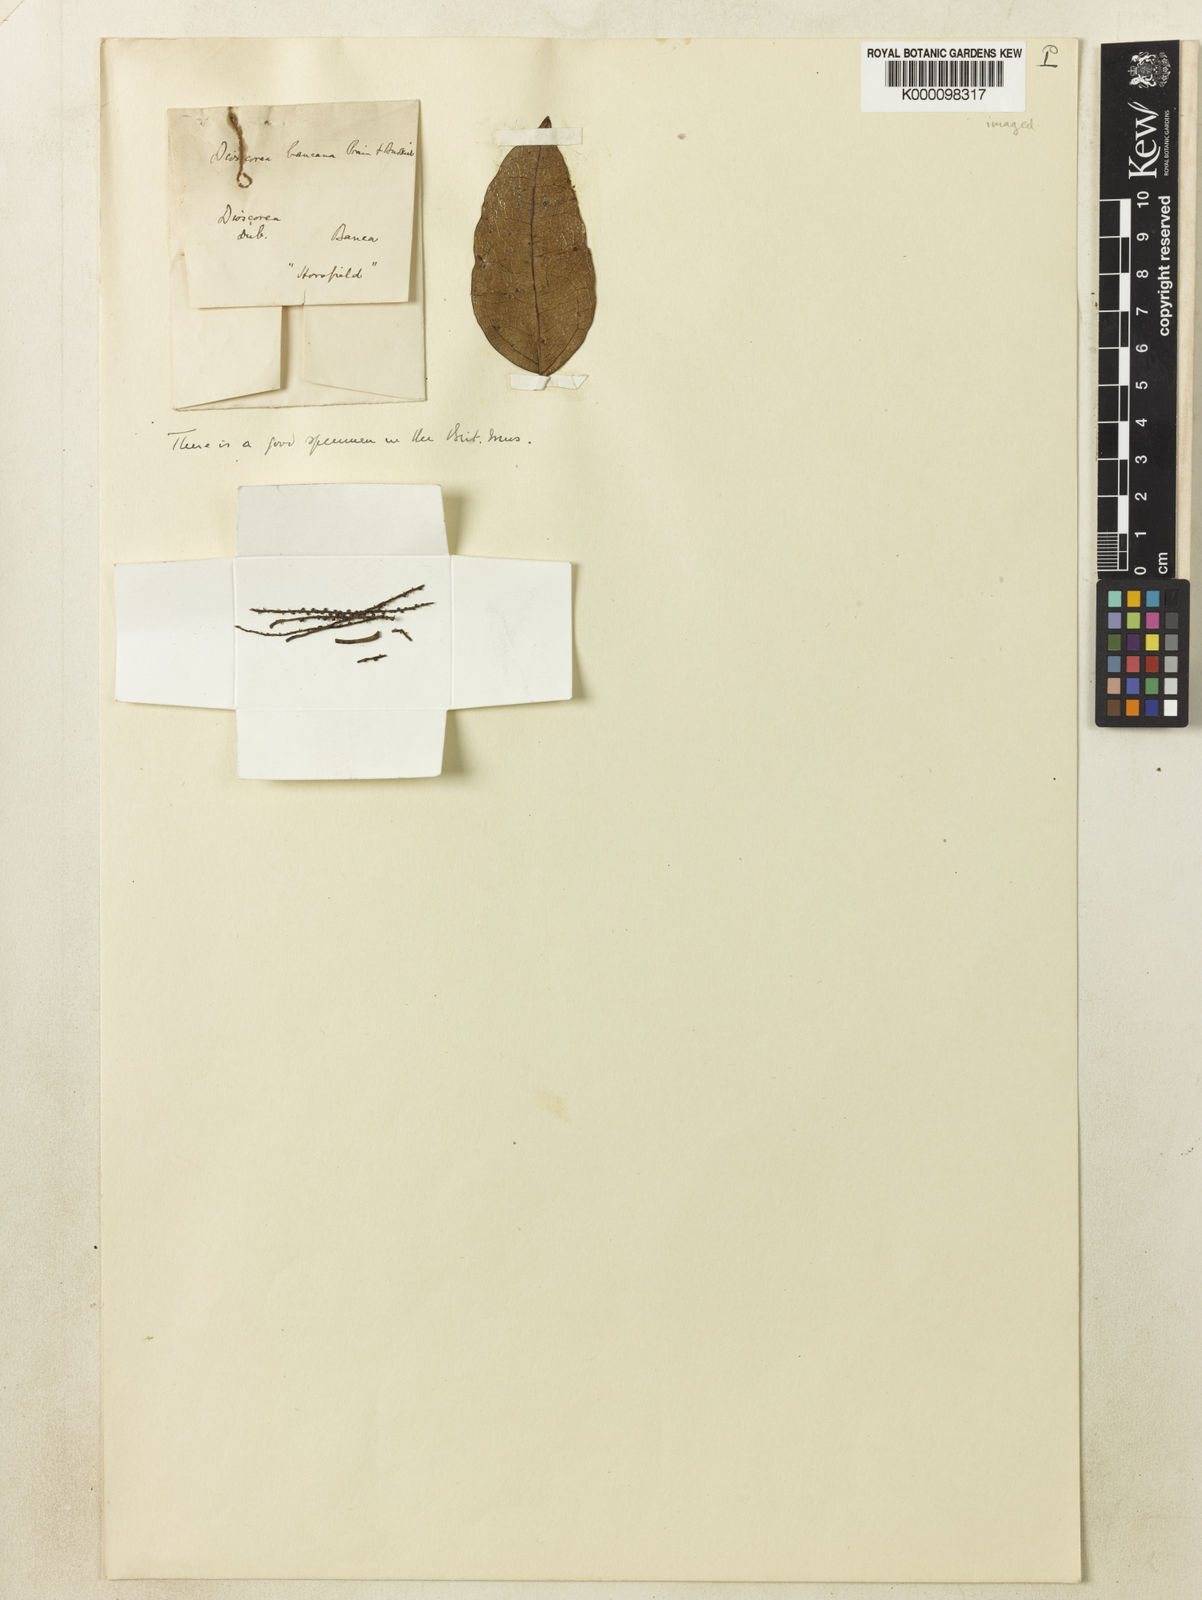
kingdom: Plantae
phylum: Tracheophyta
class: Liliopsida
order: Dioscoreales
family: Dioscoreaceae
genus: Dioscorea
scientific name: Dioscorea bancana
